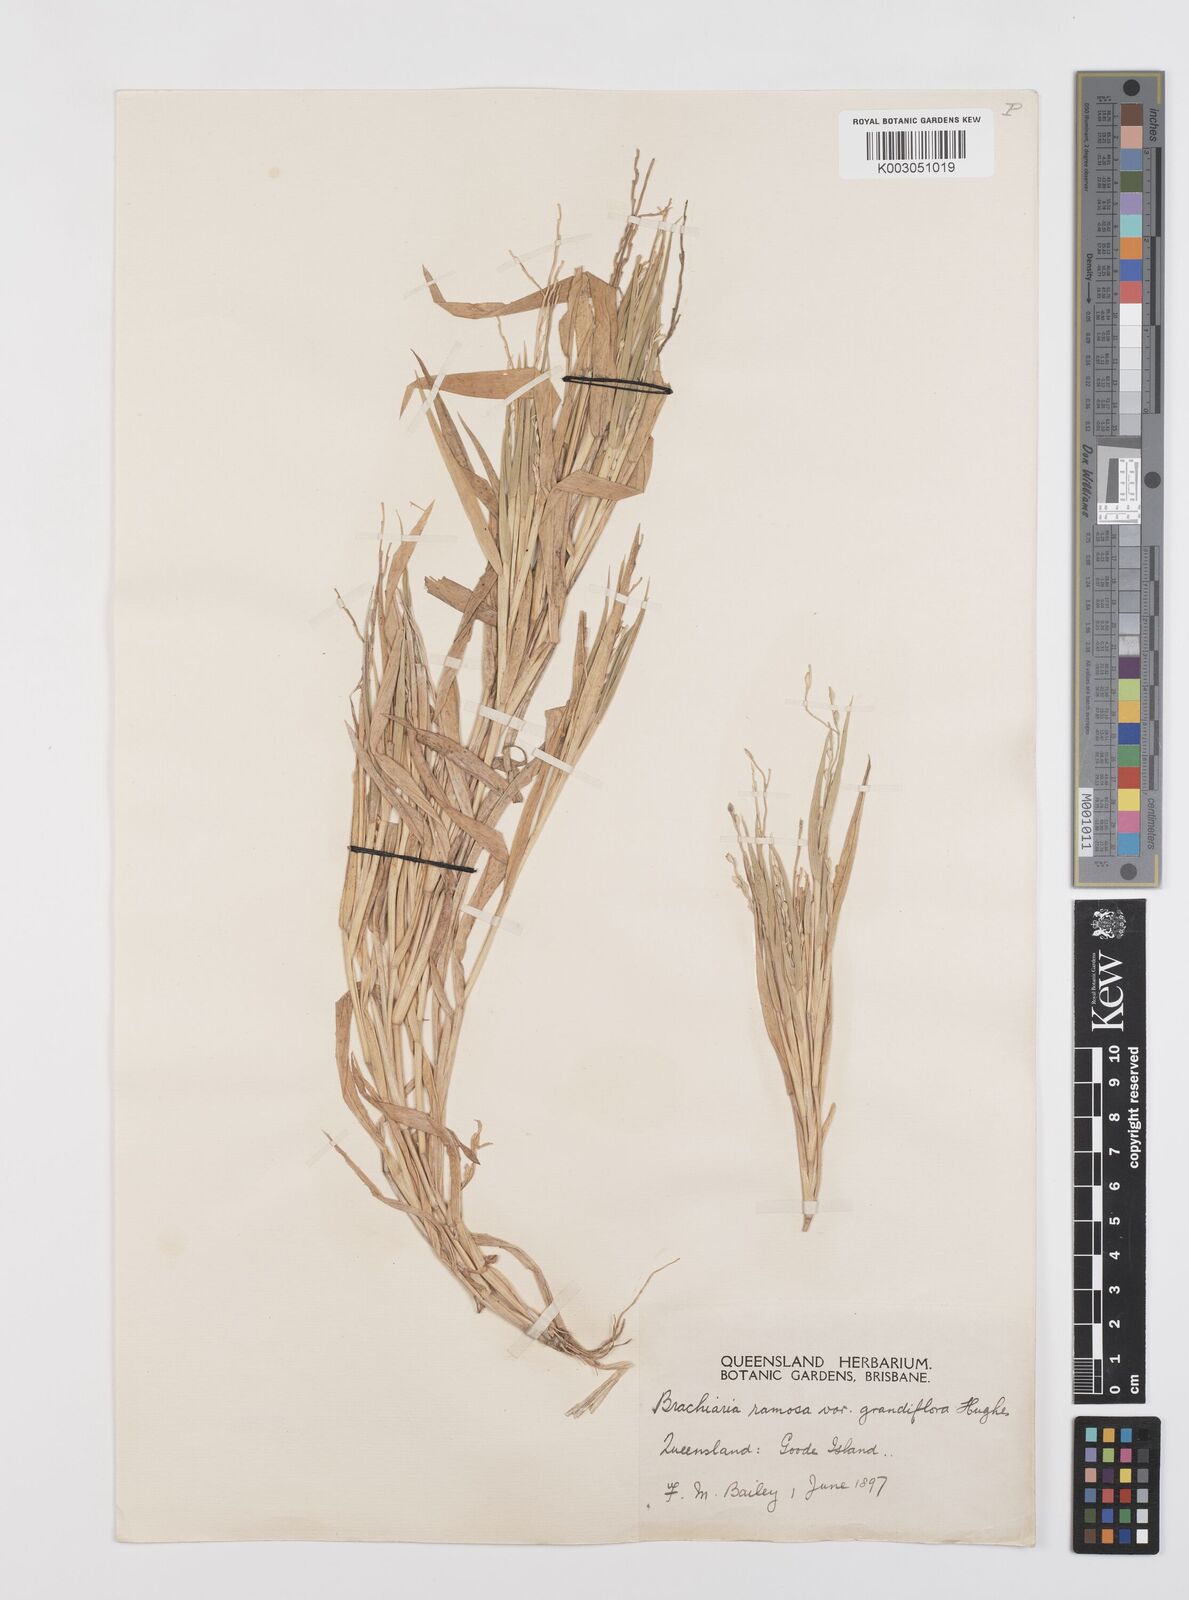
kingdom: Plantae
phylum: Tracheophyta
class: Liliopsida
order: Poales
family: Poaceae
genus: Urochloa
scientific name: Urochloa pubigera
